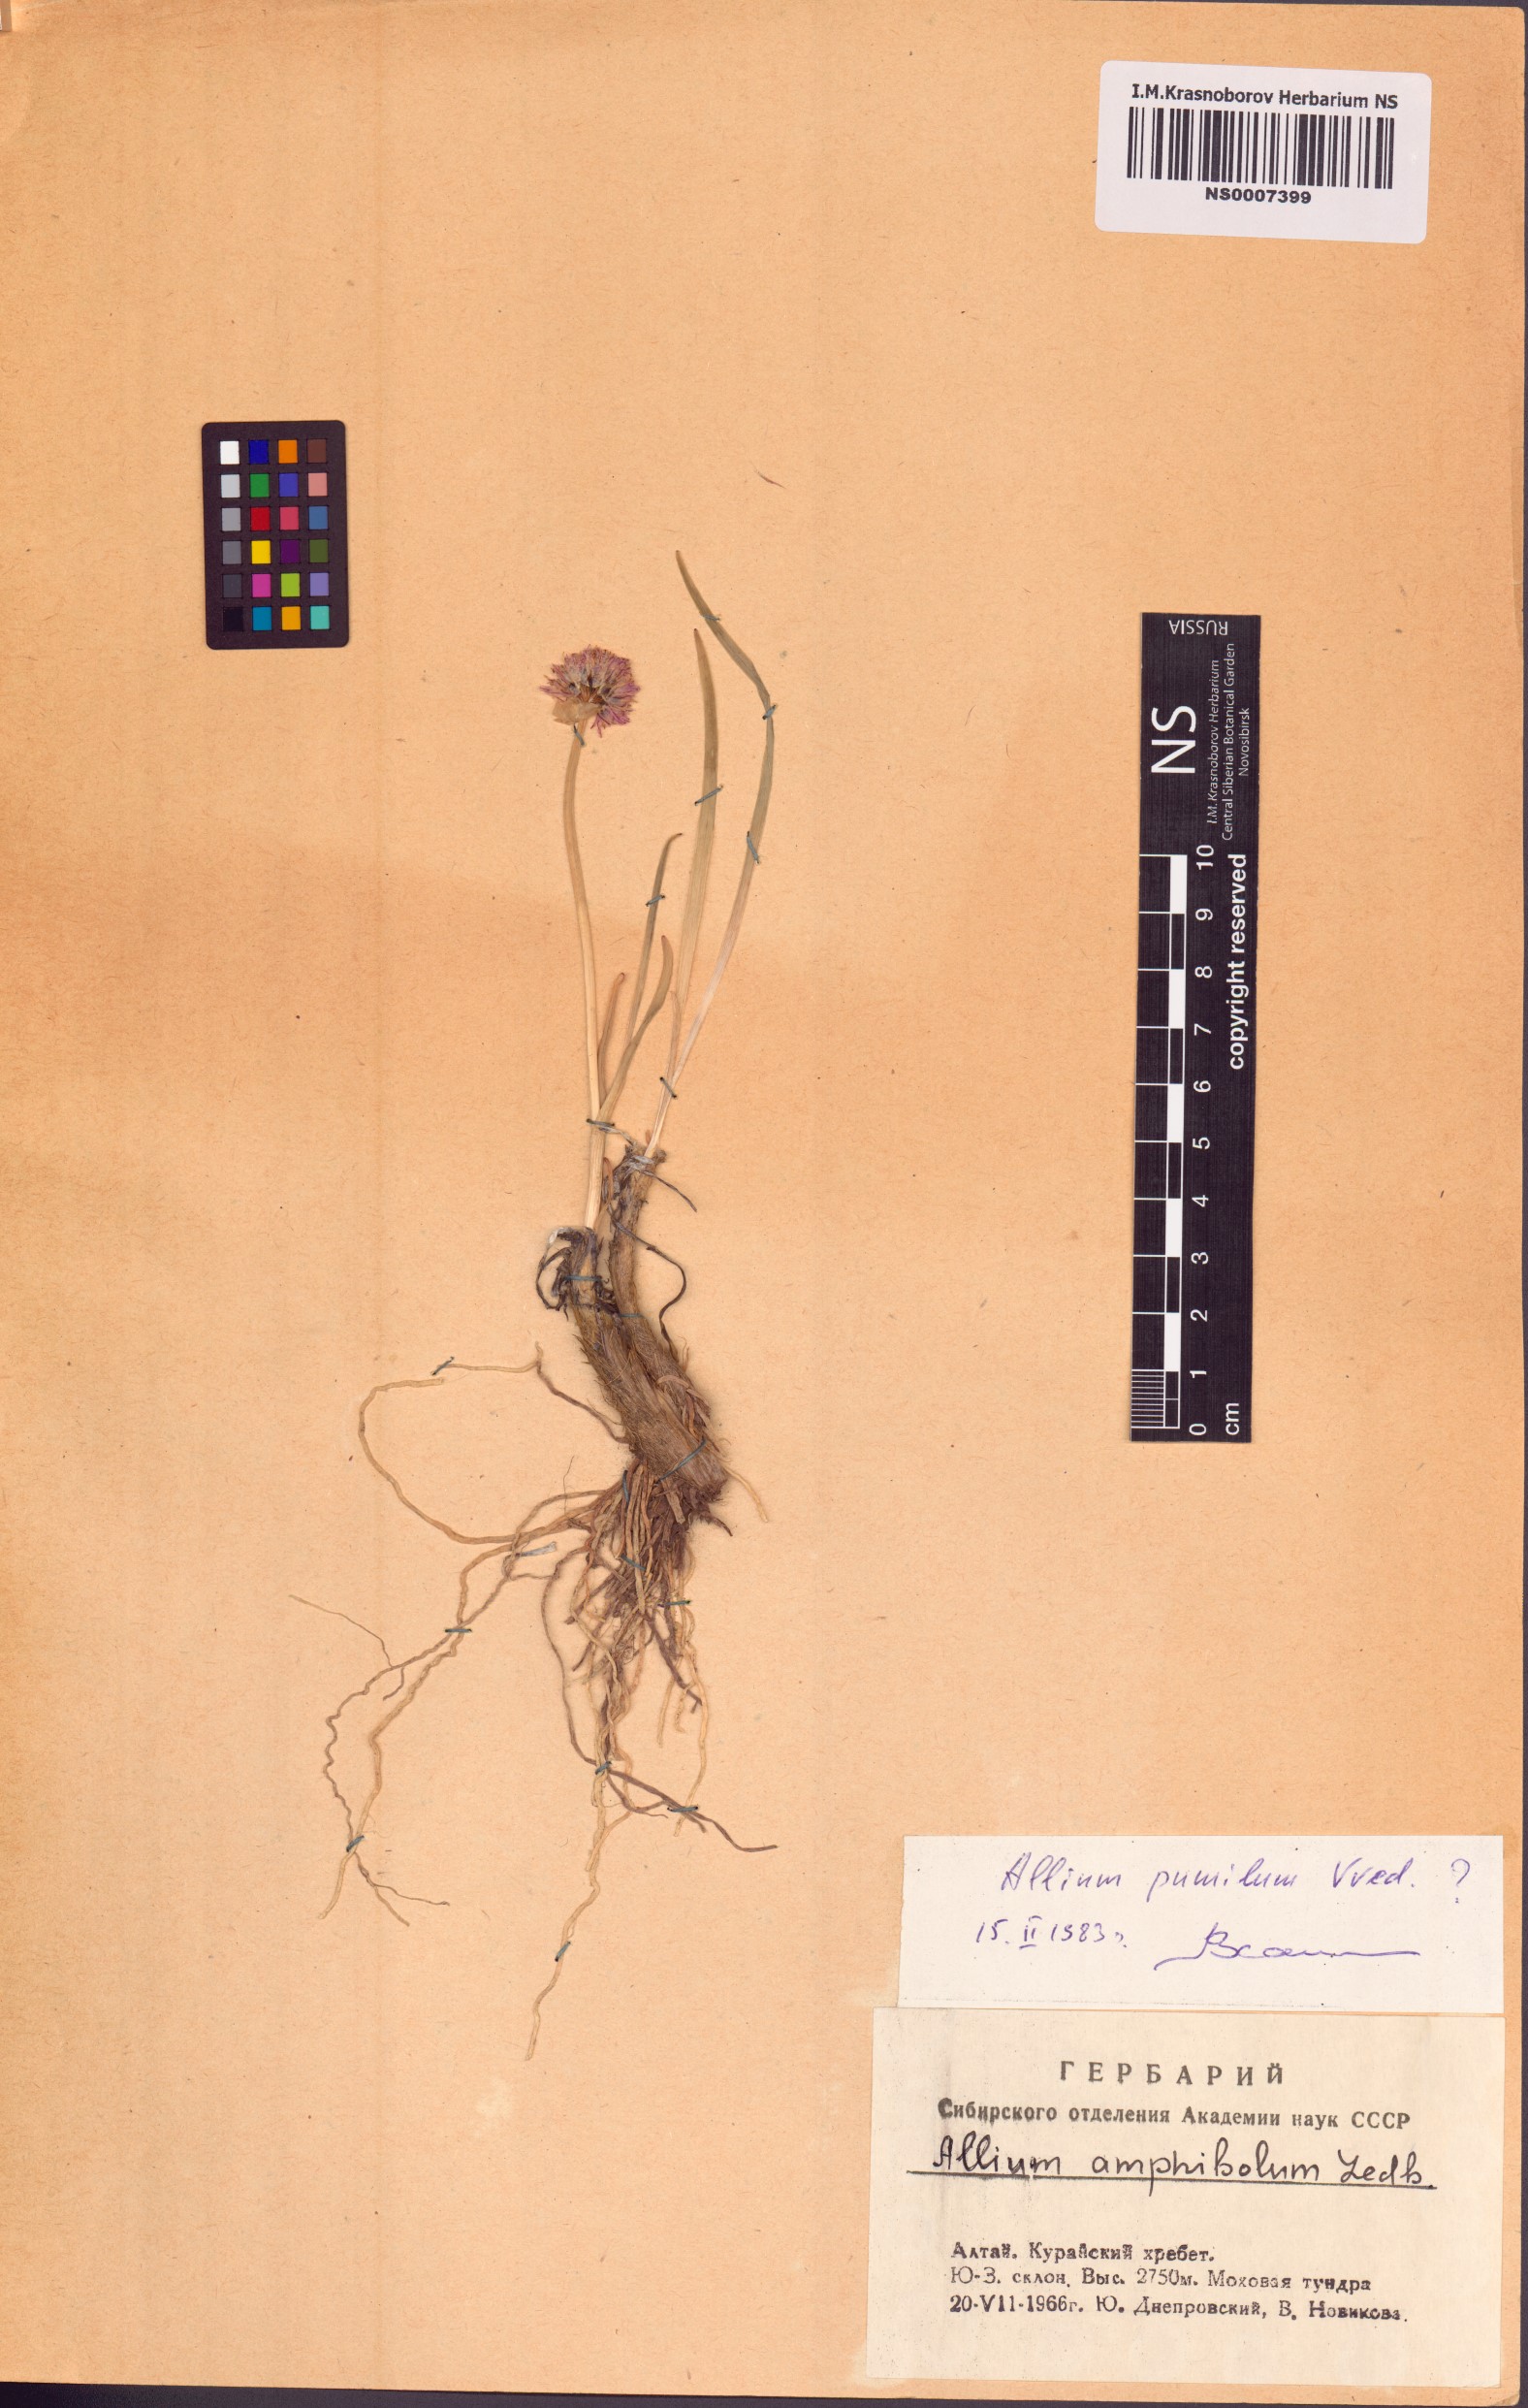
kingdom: Plantae
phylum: Tracheophyta
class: Liliopsida
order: Asparagales
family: Amaryllidaceae
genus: Allium
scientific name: Allium pumilum
